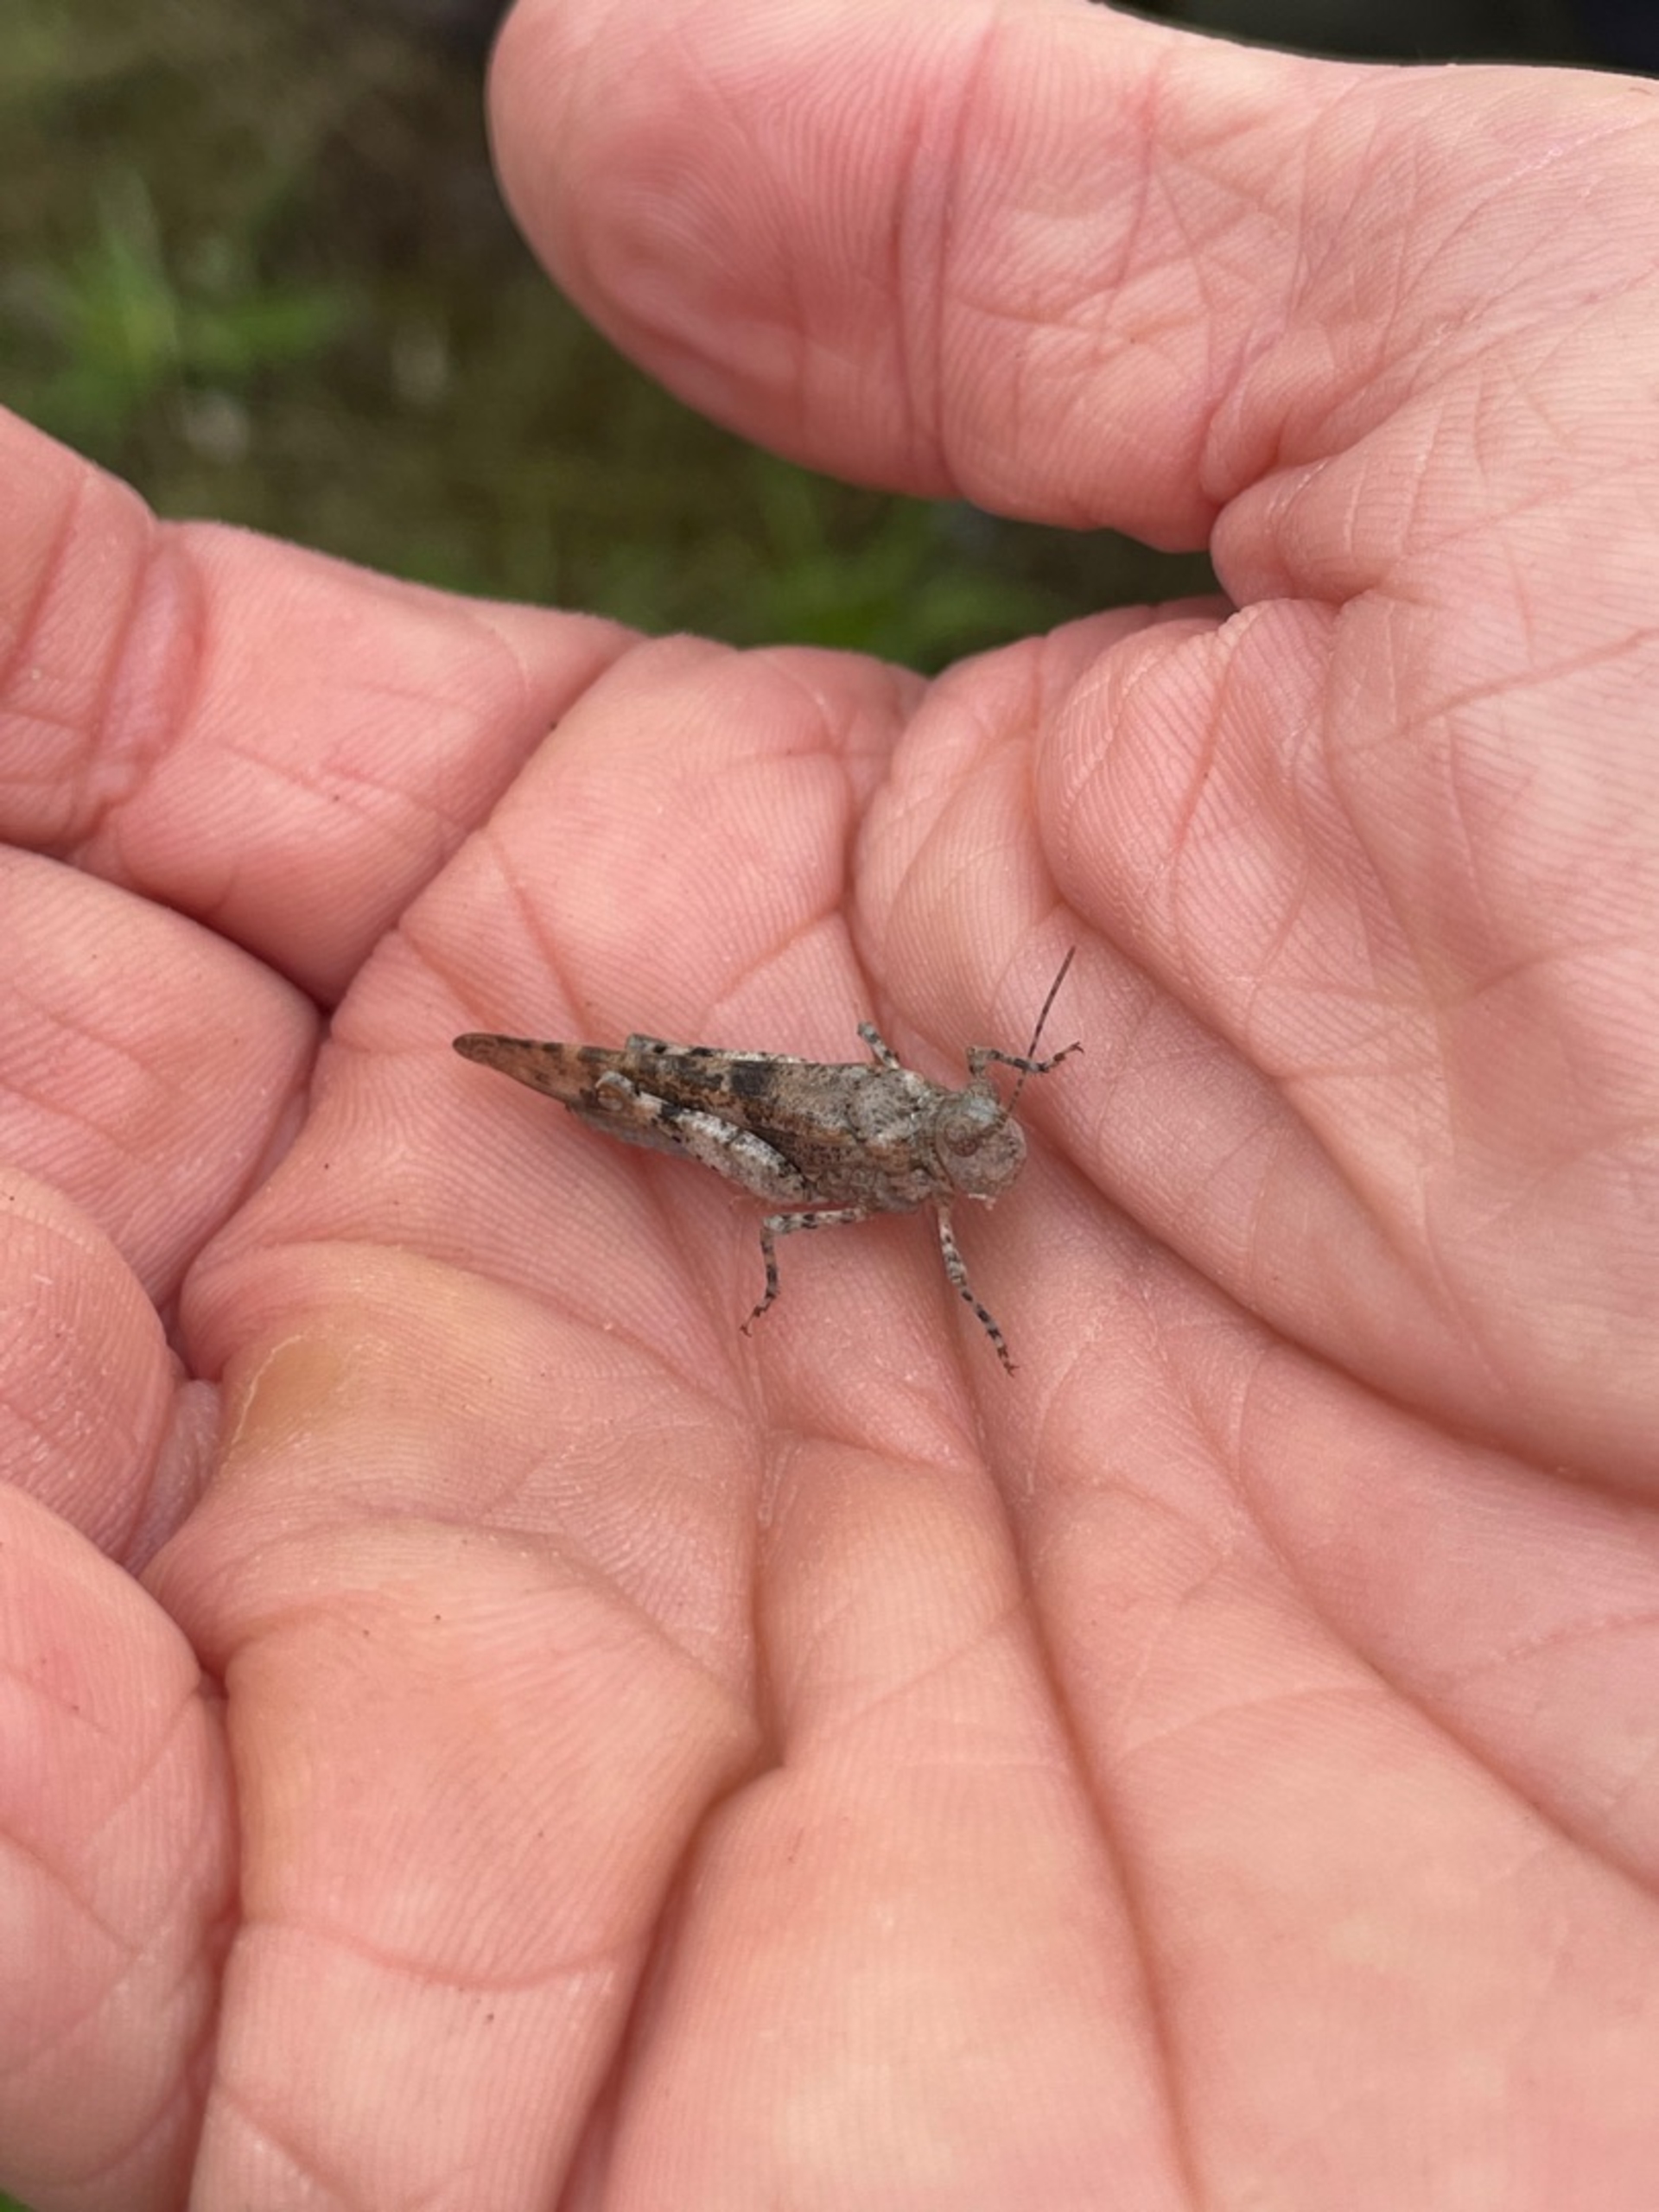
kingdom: Animalia
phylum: Arthropoda
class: Insecta
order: Orthoptera
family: Acrididae
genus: Sphingonotus
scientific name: Sphingonotus caerulans
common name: Blåvinget steppegræshoppe
